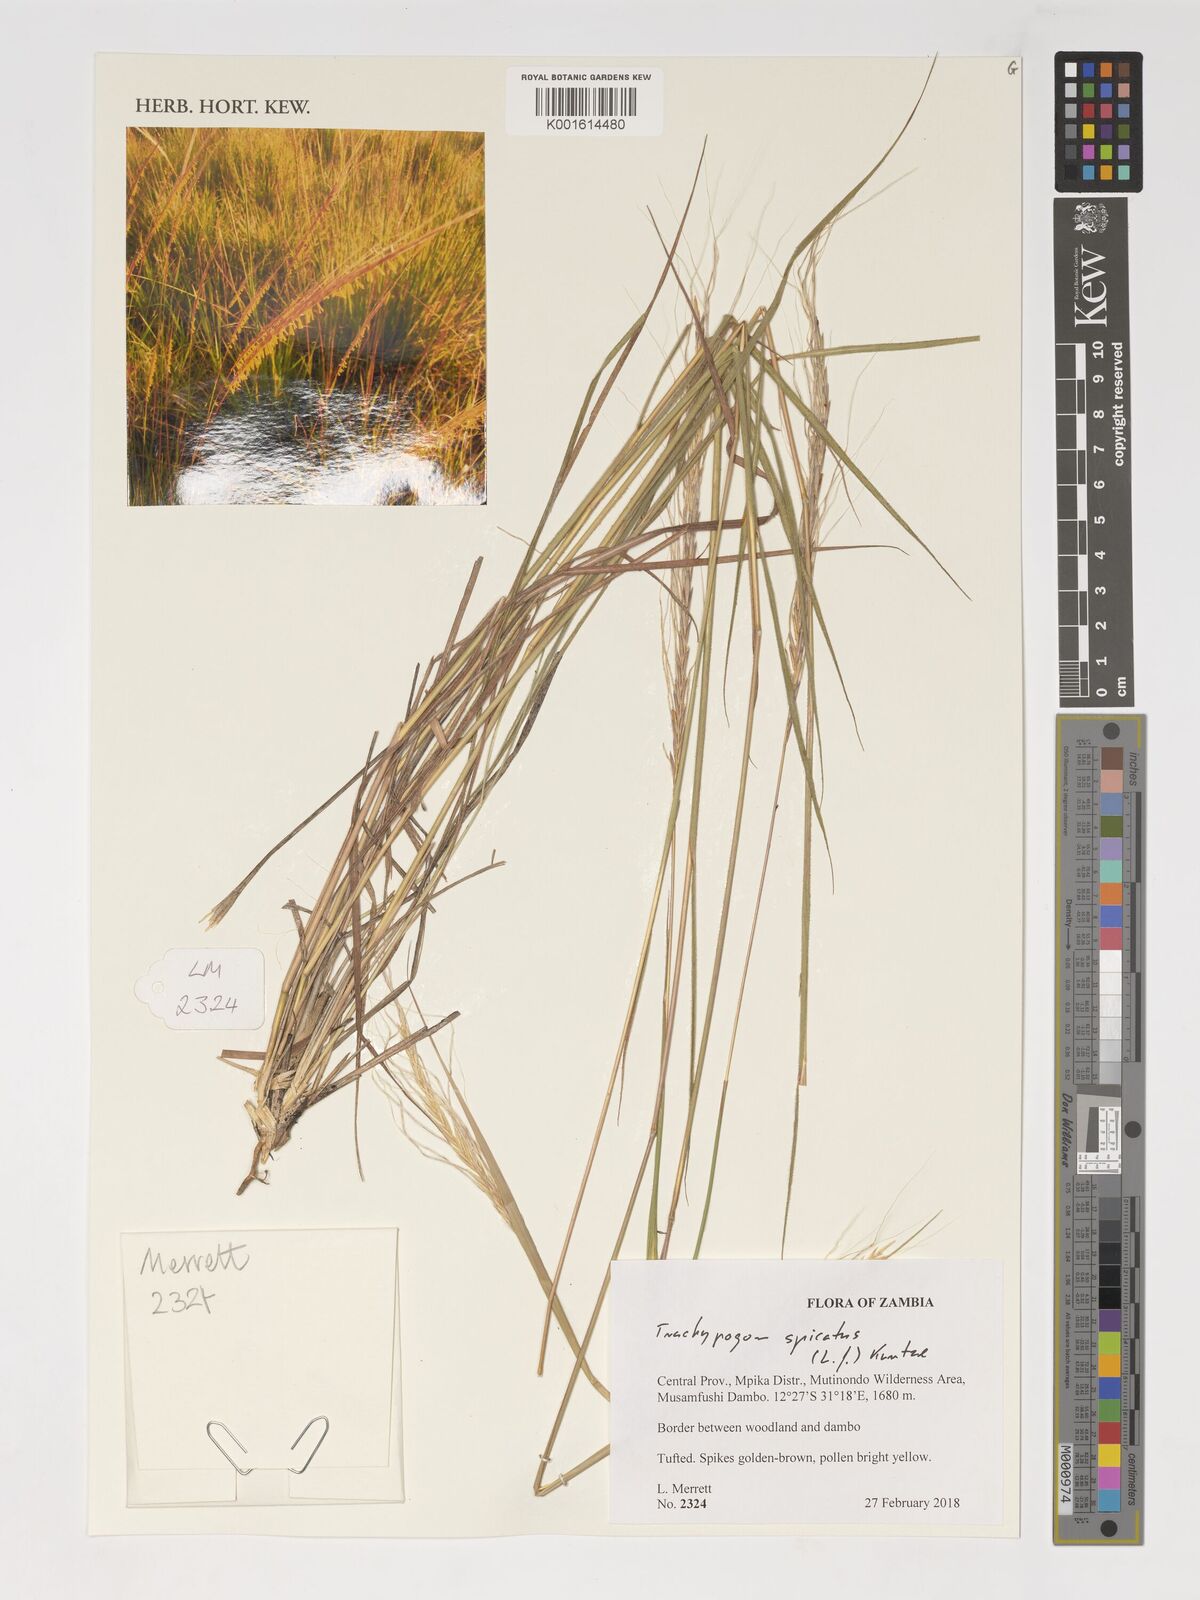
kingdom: Plantae
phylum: Tracheophyta
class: Liliopsida
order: Poales
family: Poaceae
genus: Trachypogon
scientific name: Trachypogon spicatus
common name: Crinkle-awn
